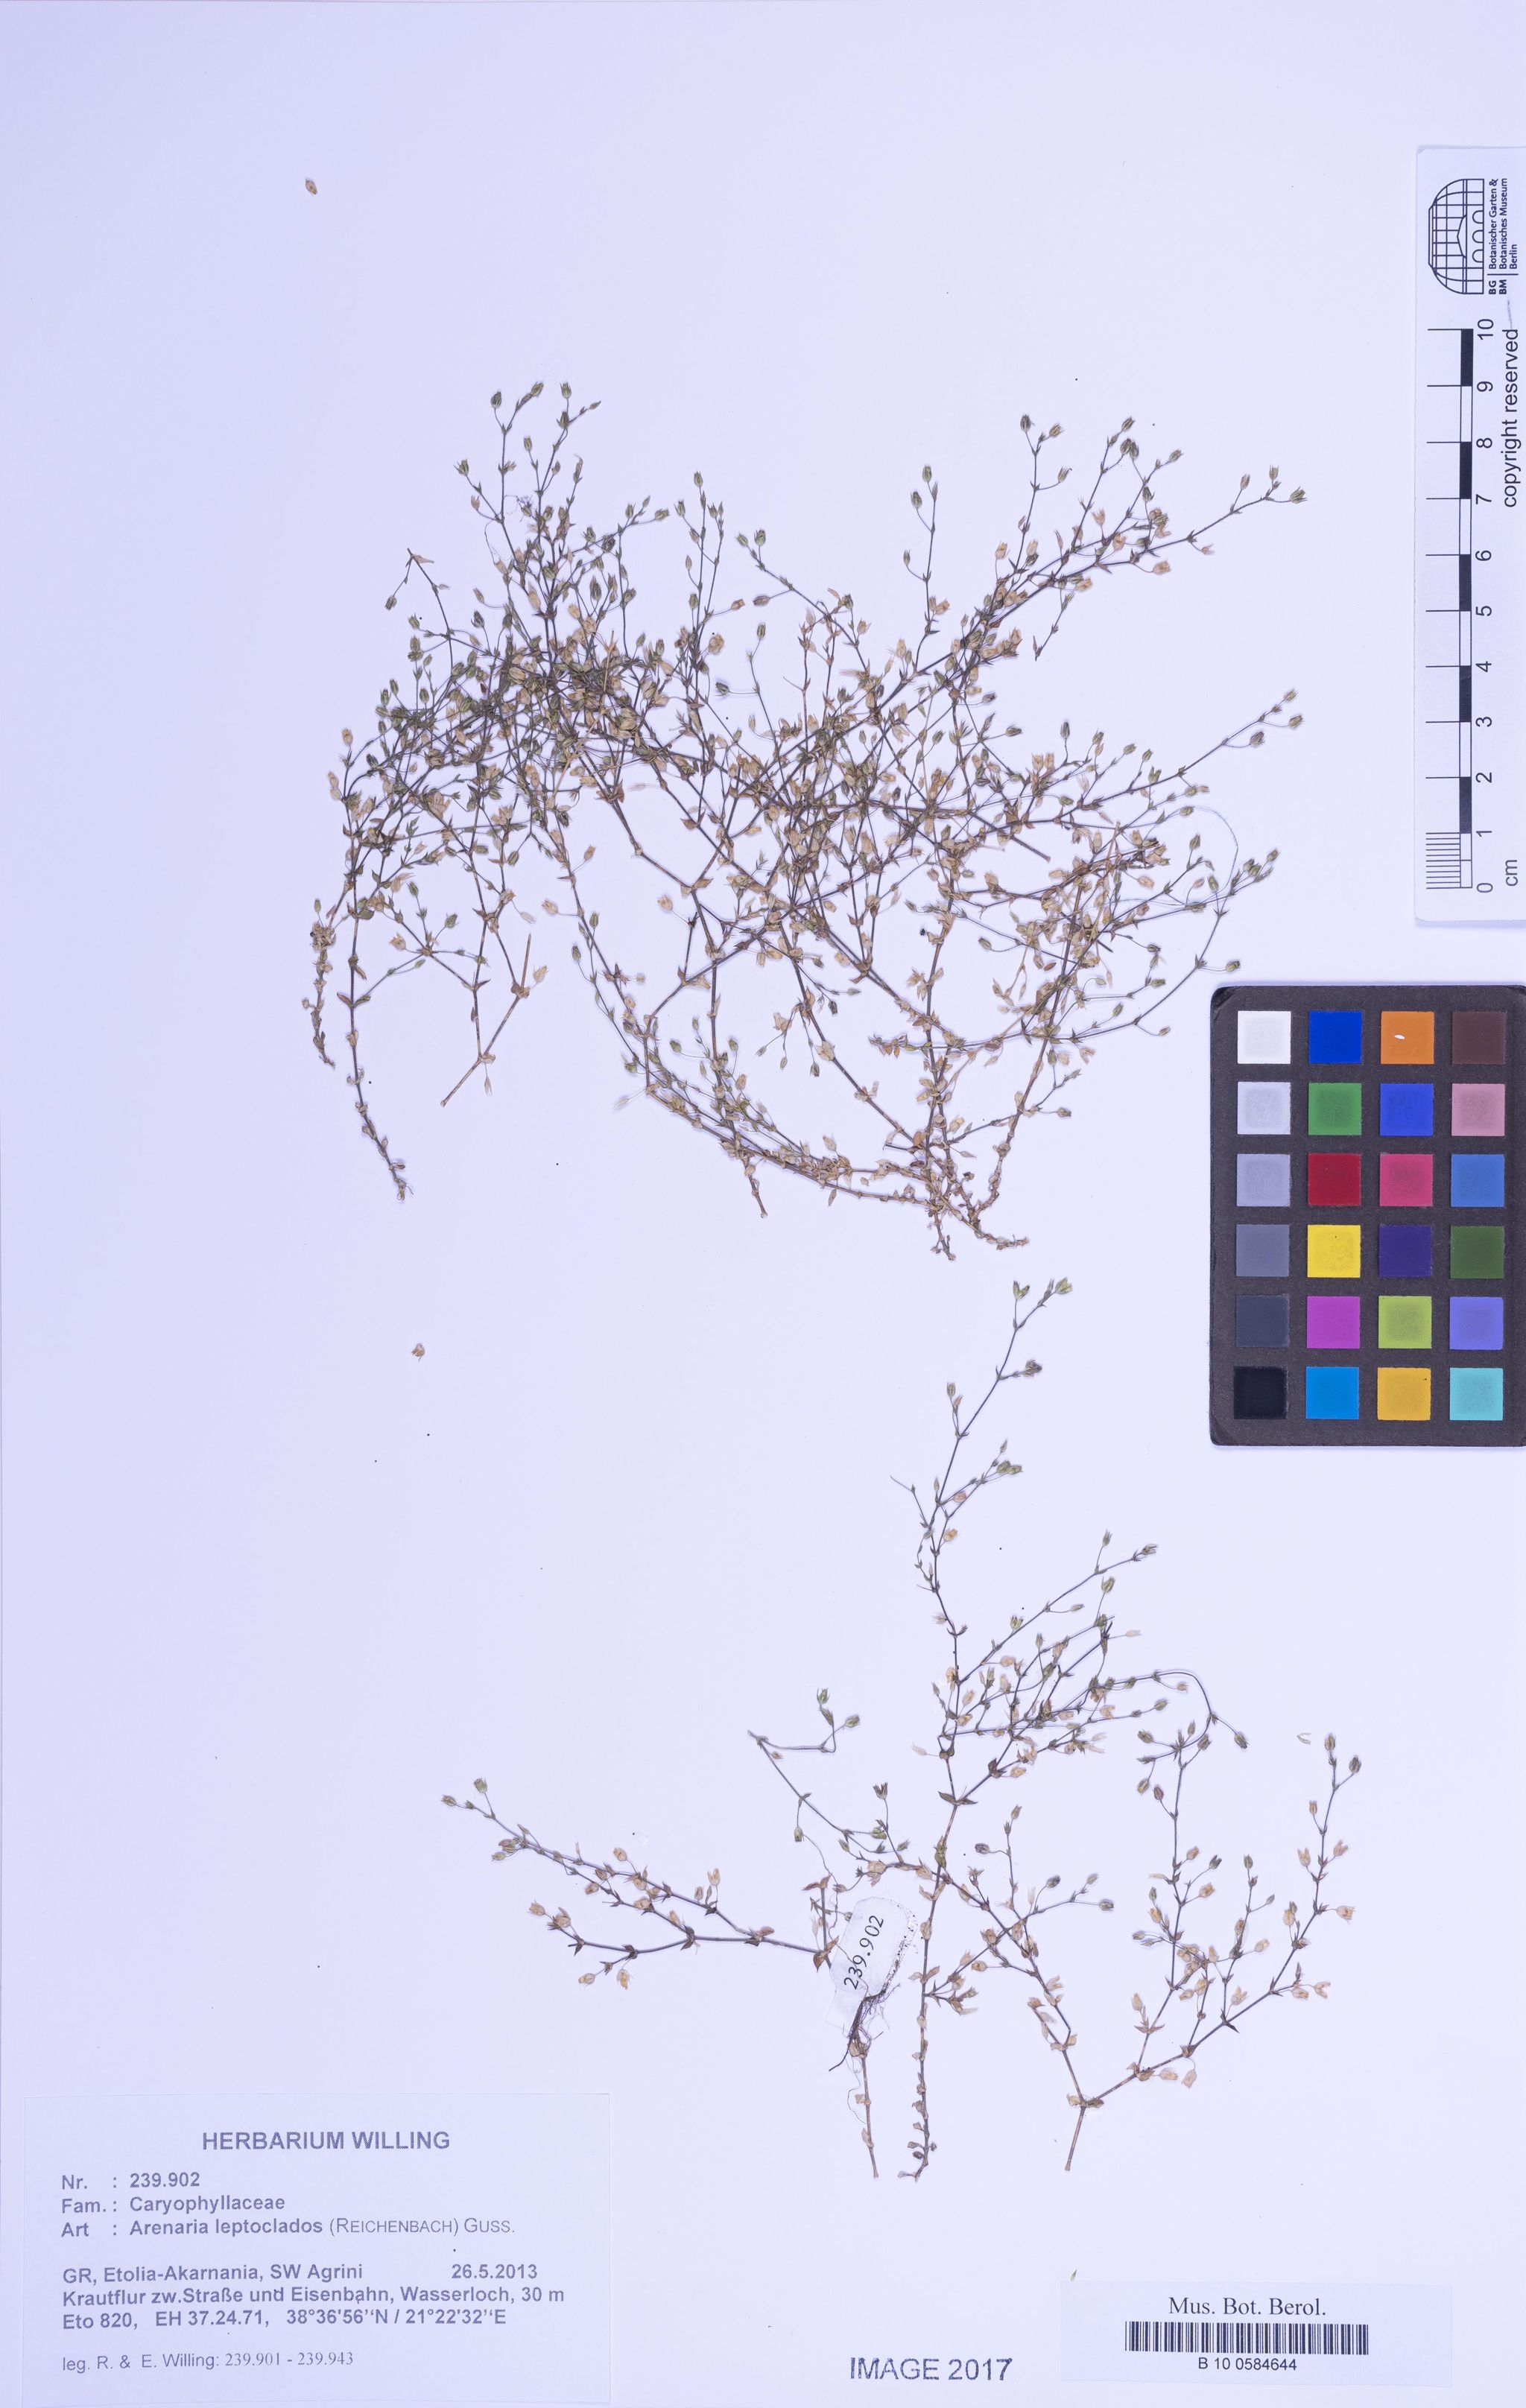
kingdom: Plantae
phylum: Tracheophyta
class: Magnoliopsida
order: Caryophyllales
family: Caryophyllaceae
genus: Arenaria
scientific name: Arenaria leptoclados
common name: Thyme-leaved sandwort
